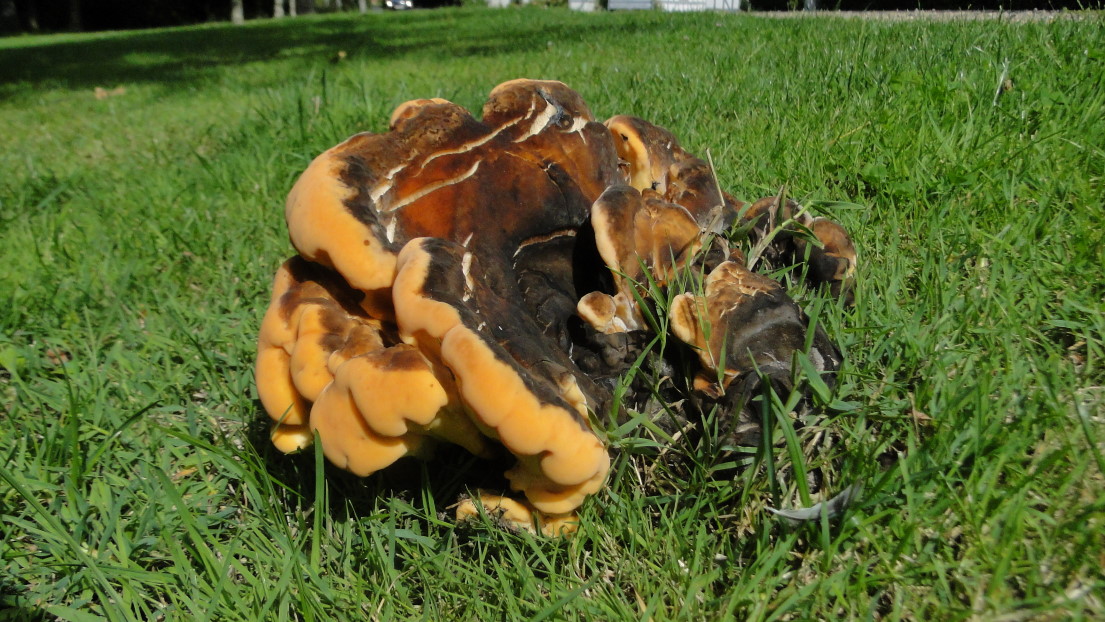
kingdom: Fungi
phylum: Basidiomycota
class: Agaricomycetes
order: Polyporales
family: Laetiporaceae
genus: Laetiporus
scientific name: Laetiporus sulphureus
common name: svovlporesvamp
